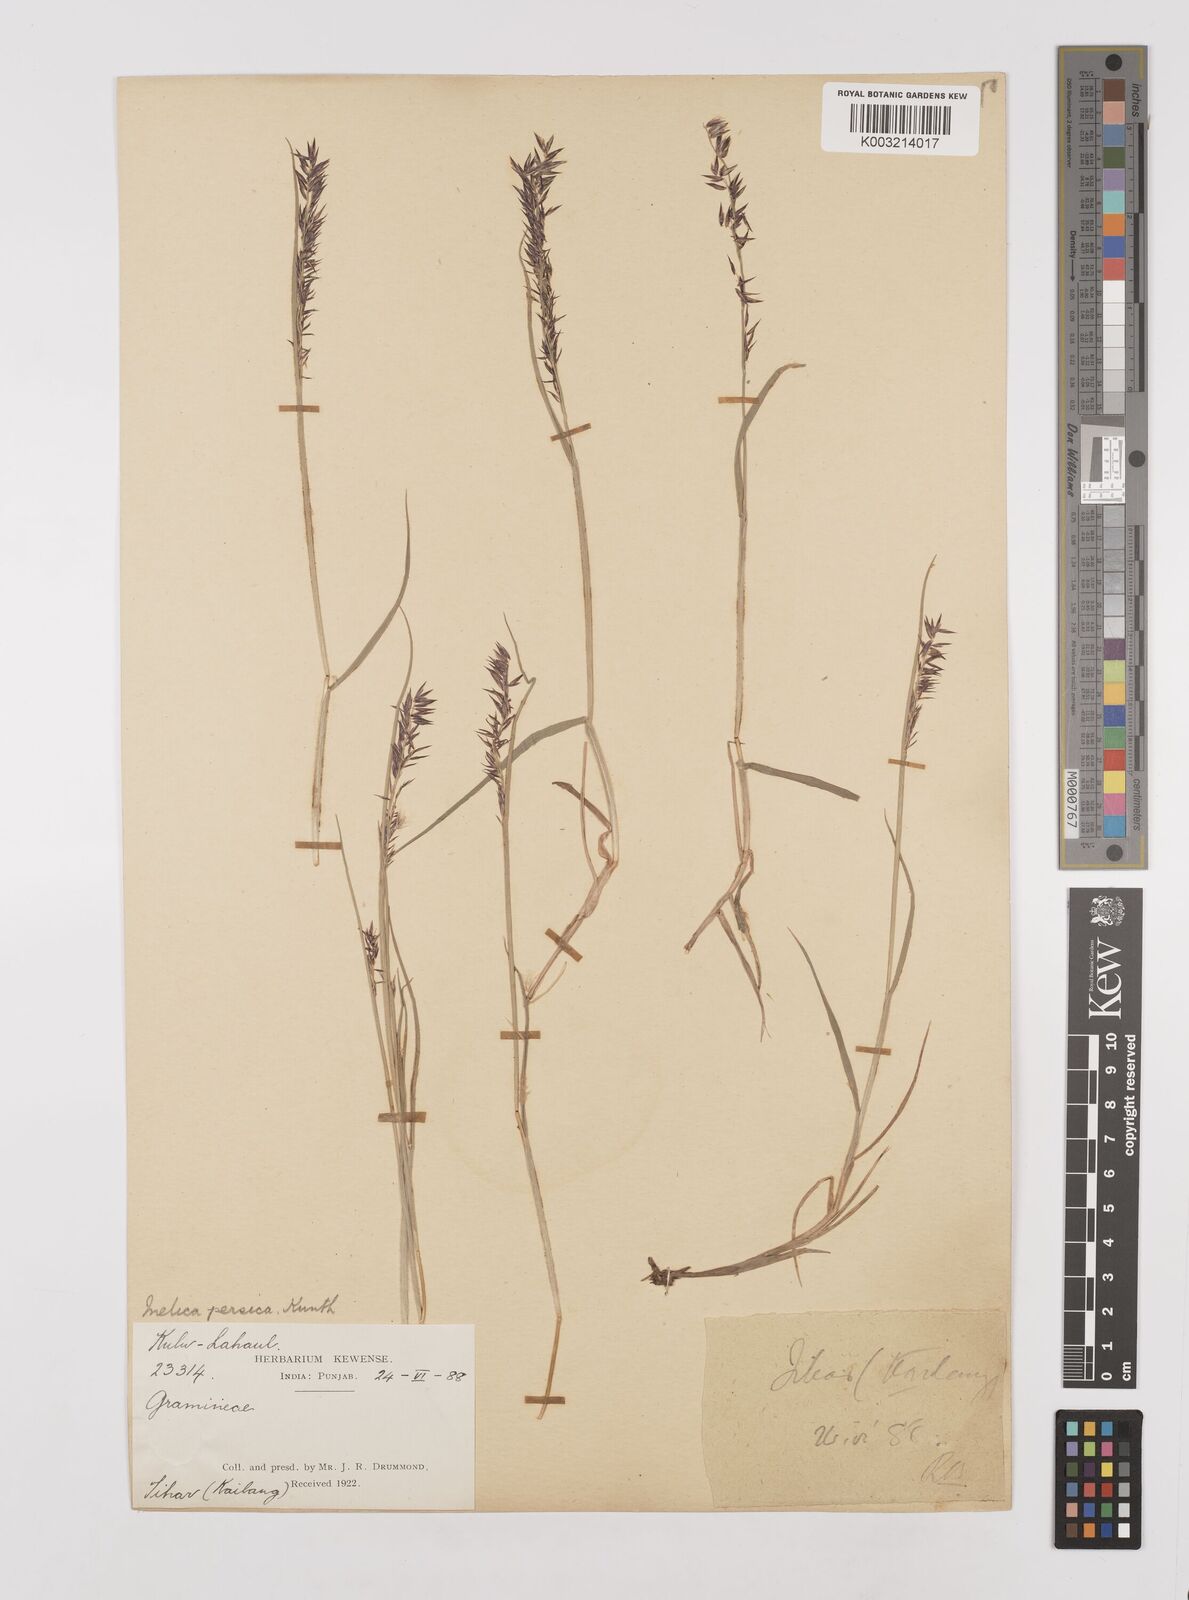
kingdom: Plantae
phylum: Tracheophyta
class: Liliopsida
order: Poales
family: Poaceae
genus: Melica
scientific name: Melica persica
